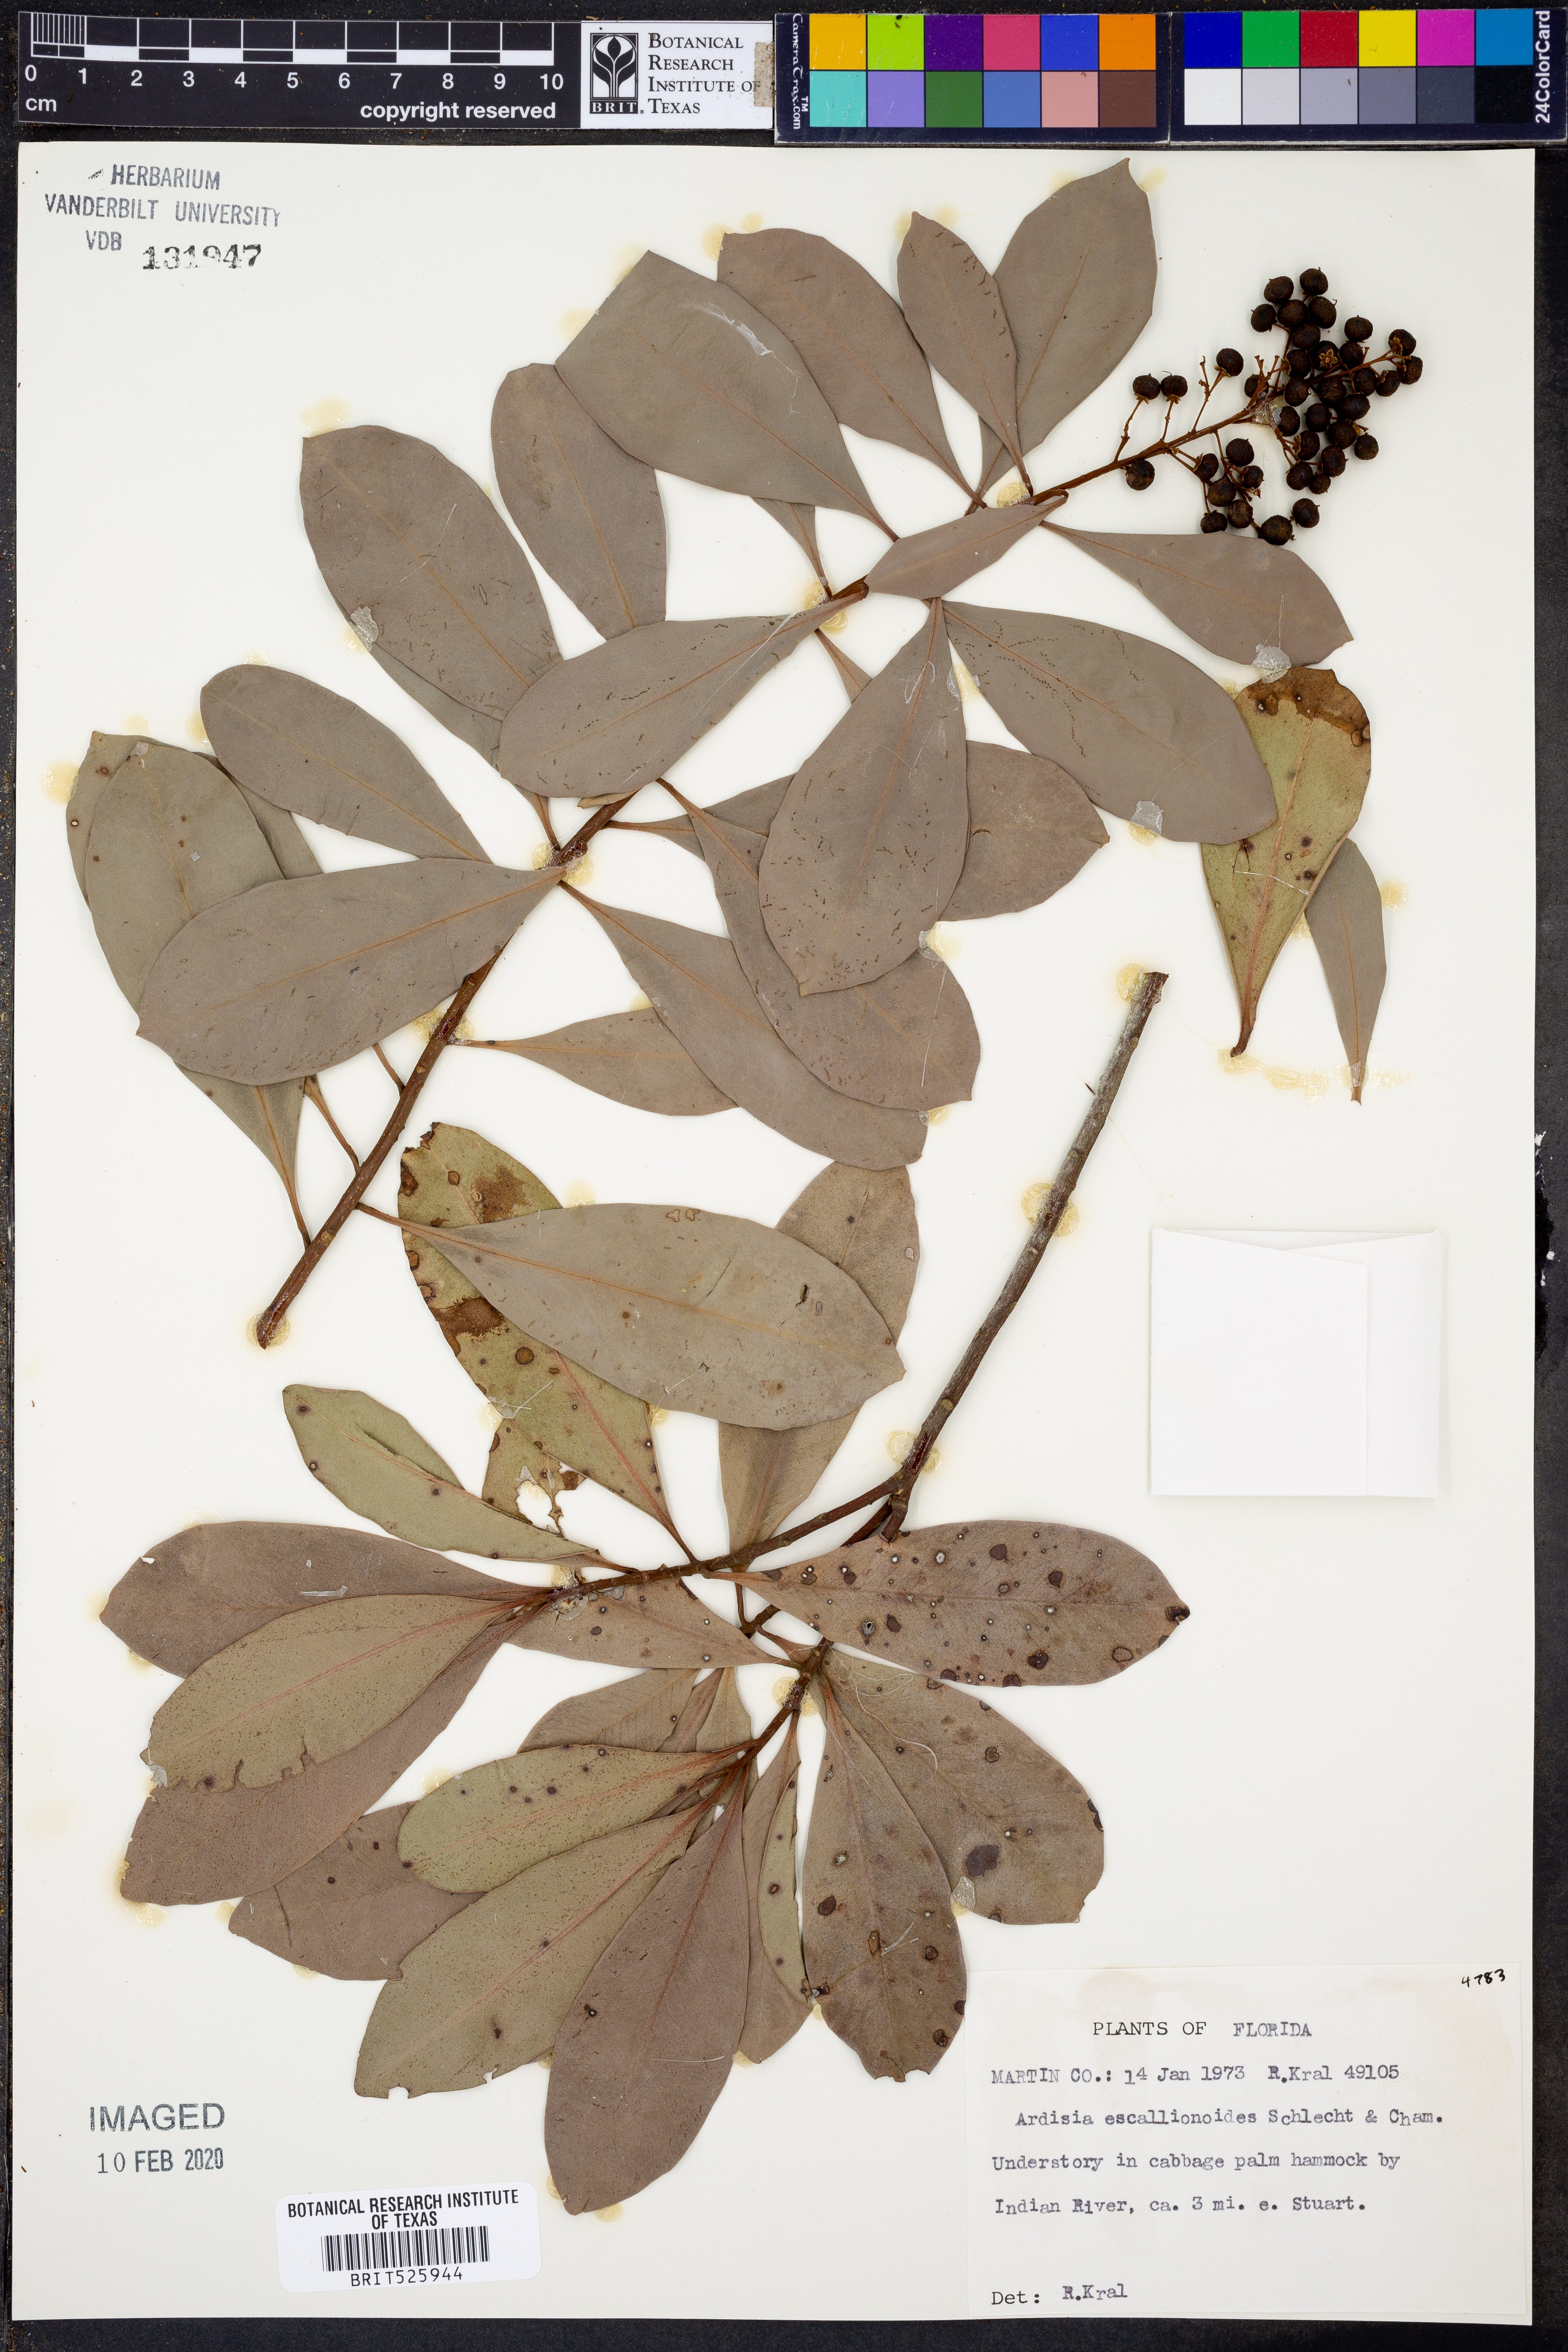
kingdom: Plantae
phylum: Tracheophyta
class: Magnoliopsida
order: Ericales
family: Primulaceae
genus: Ardisia
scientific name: Ardisia escallonioides
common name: Island marlberry
